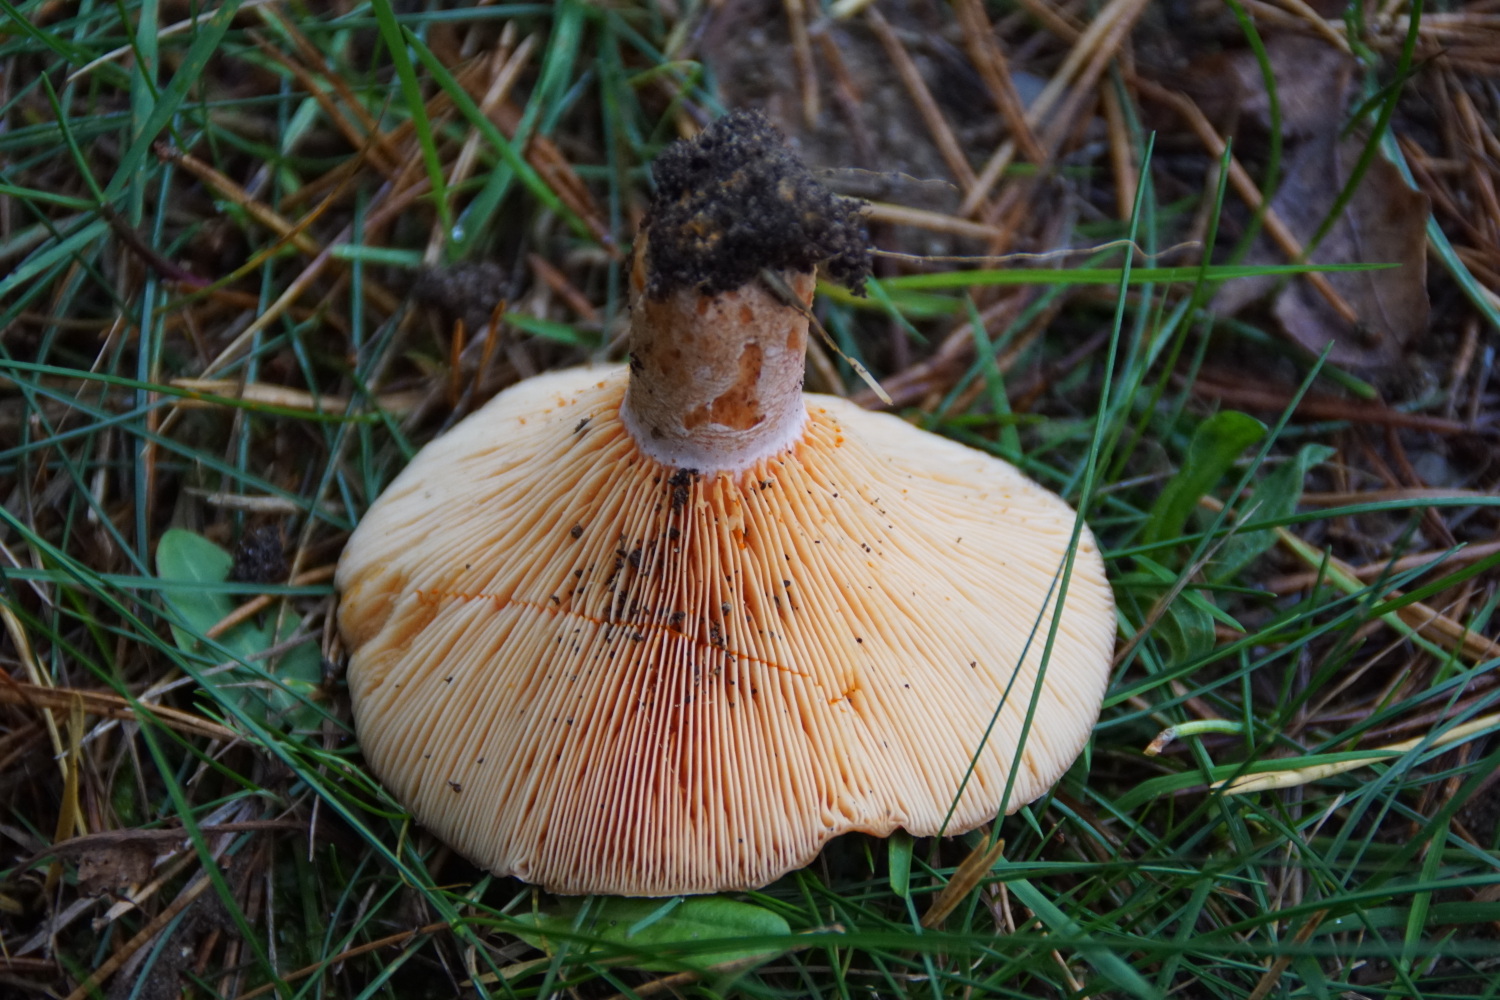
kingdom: Fungi
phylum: Basidiomycota
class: Agaricomycetes
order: Russulales
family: Russulaceae
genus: Lactarius
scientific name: Lactarius deliciosus
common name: velsmagende mælkehat
